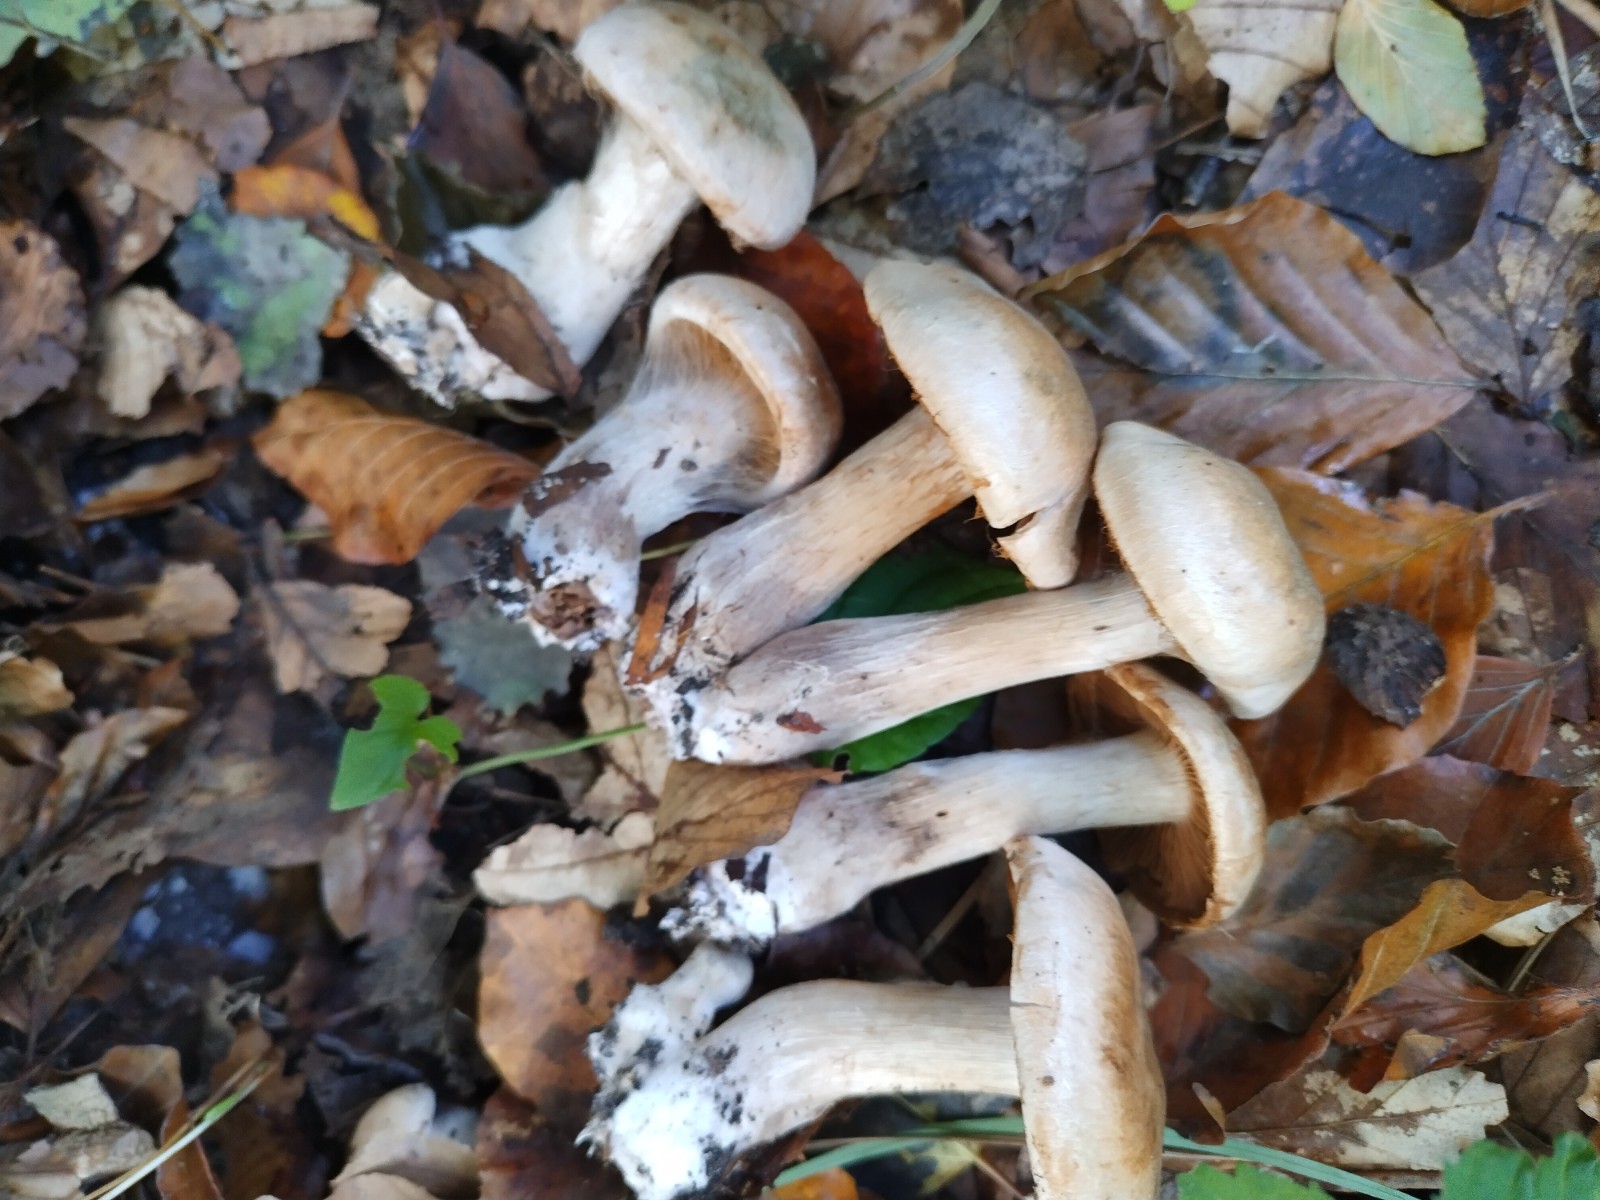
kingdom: Fungi
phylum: Basidiomycota
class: Agaricomycetes
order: Agaricales
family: Cortinariaceae
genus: Cortinarius
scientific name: Cortinarius
